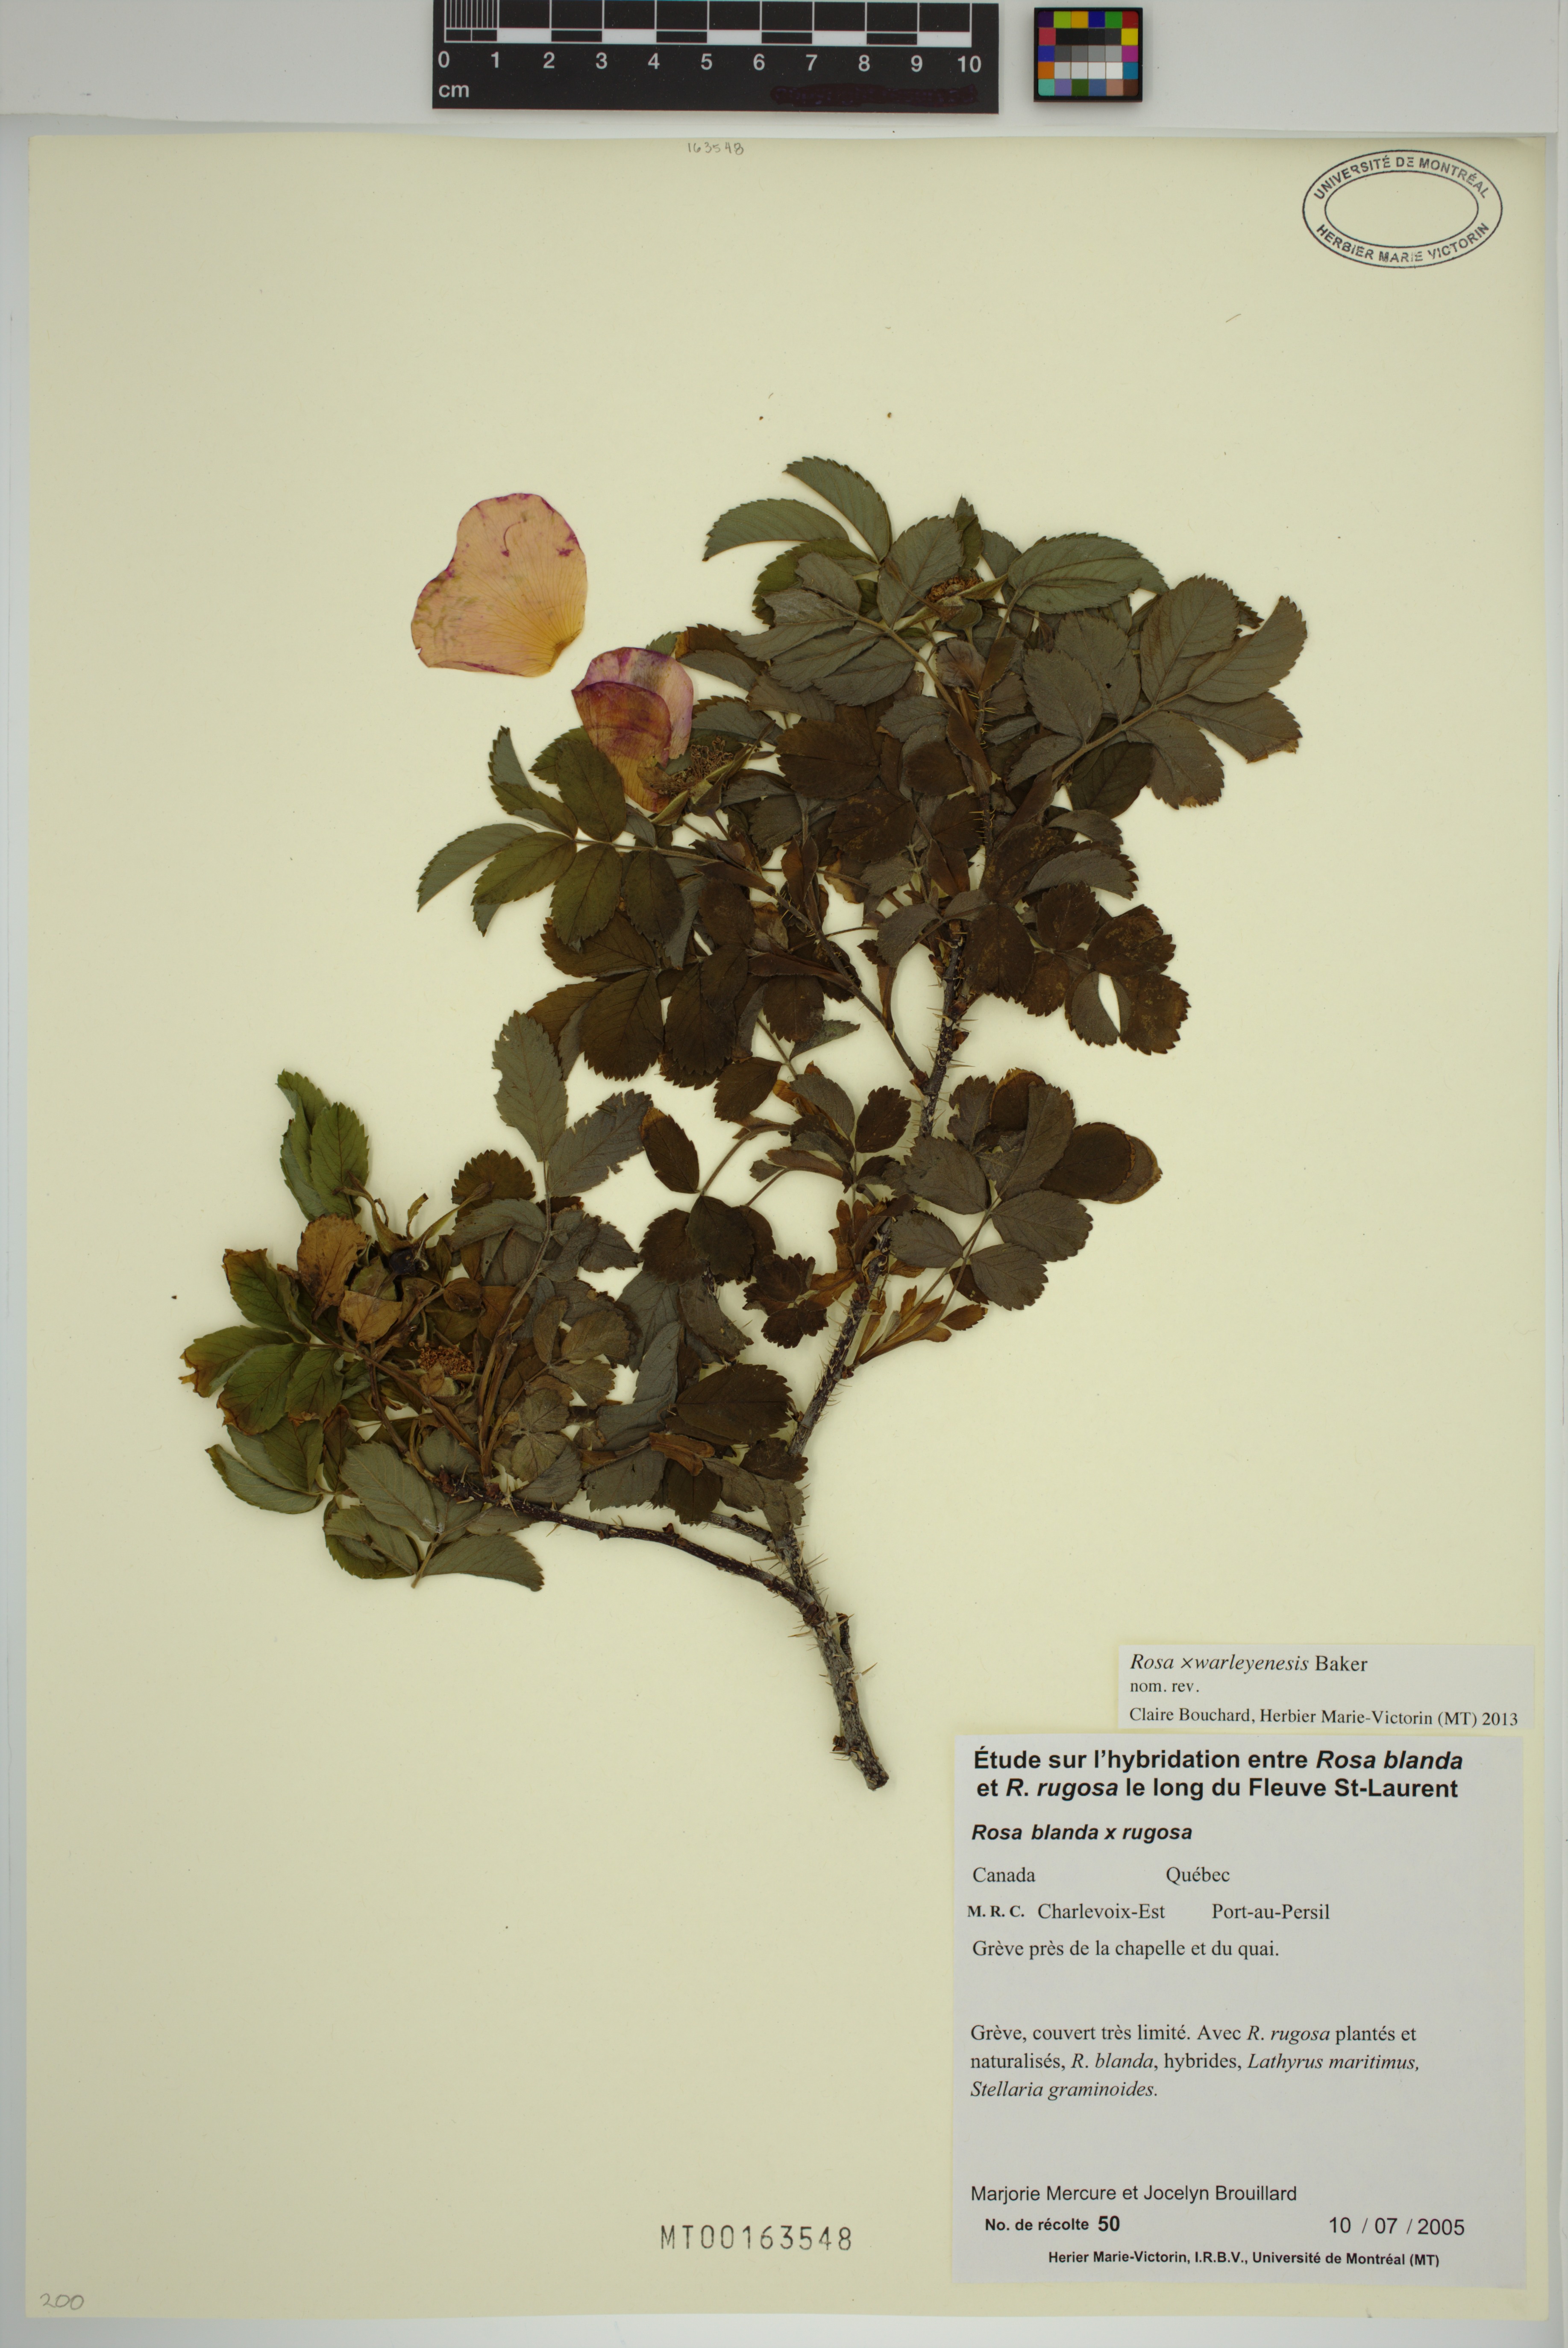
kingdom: Plantae
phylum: Tracheophyta
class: Magnoliopsida
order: Rosales
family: Rosaceae
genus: Rosa
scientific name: Rosa warleyensis
